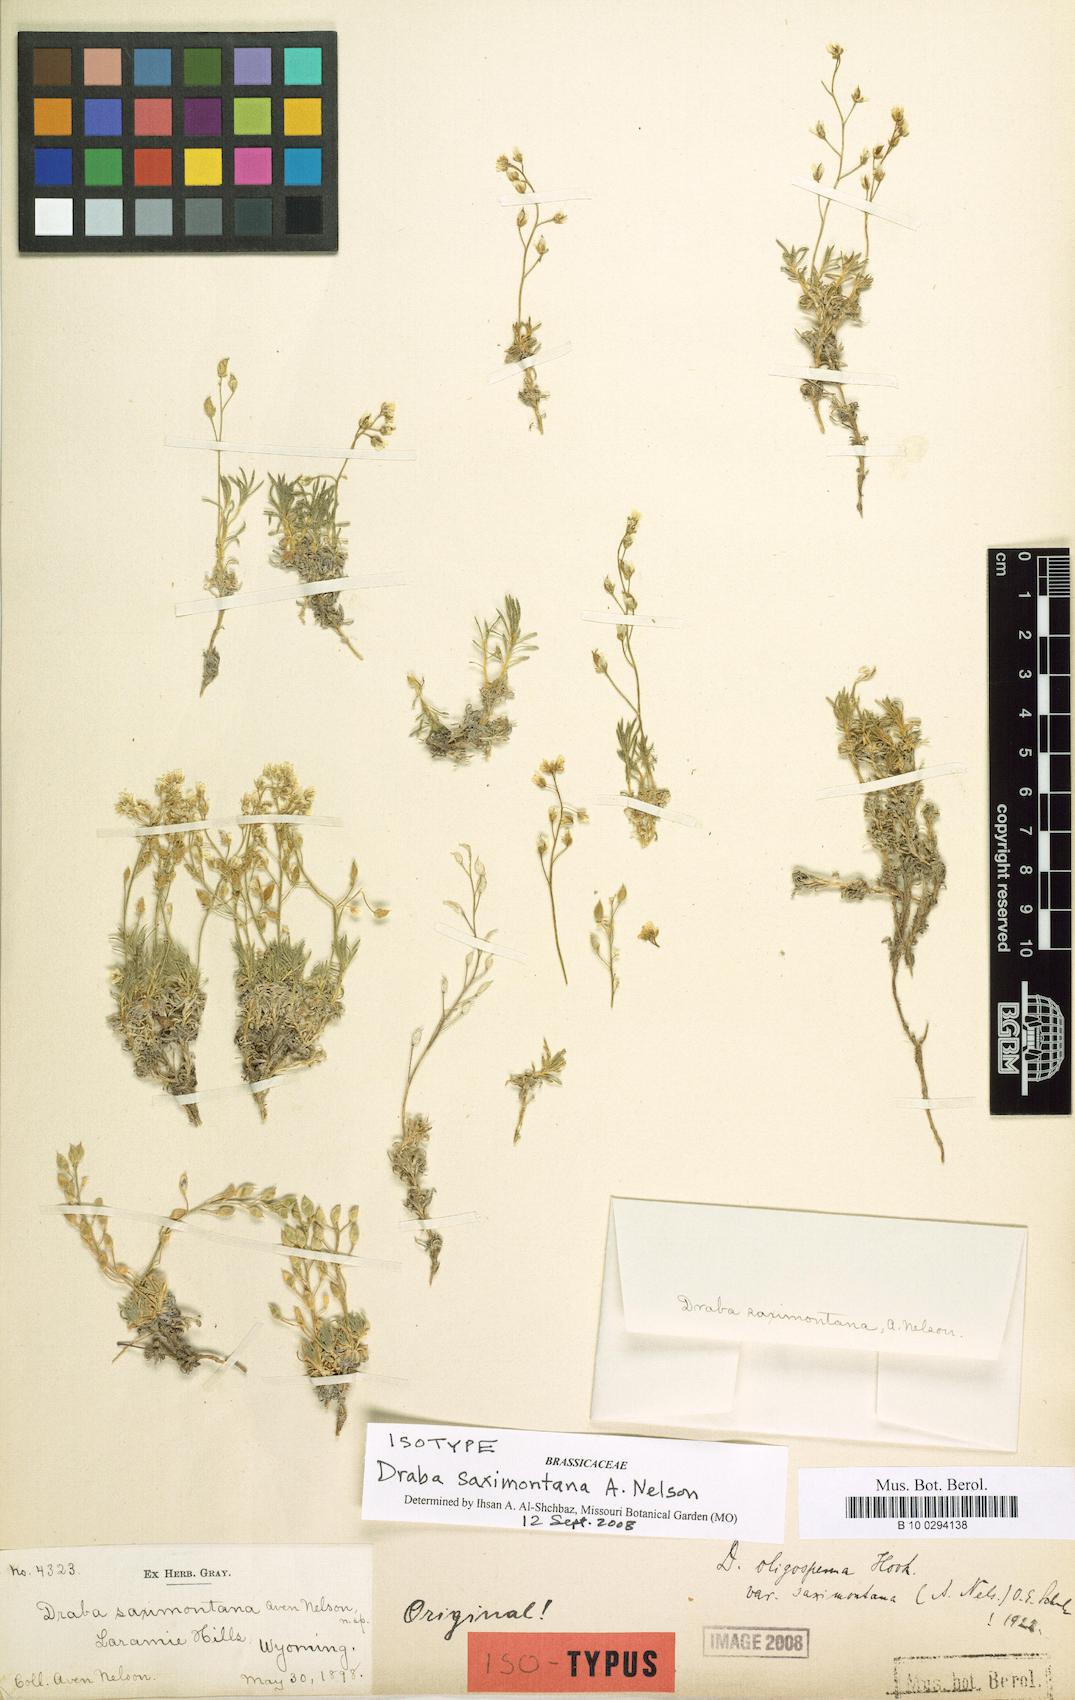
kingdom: Plantae
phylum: Tracheophyta
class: Magnoliopsida
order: Brassicales
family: Brassicaceae
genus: Draba
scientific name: Draba oligosperma
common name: Few-seed draba
